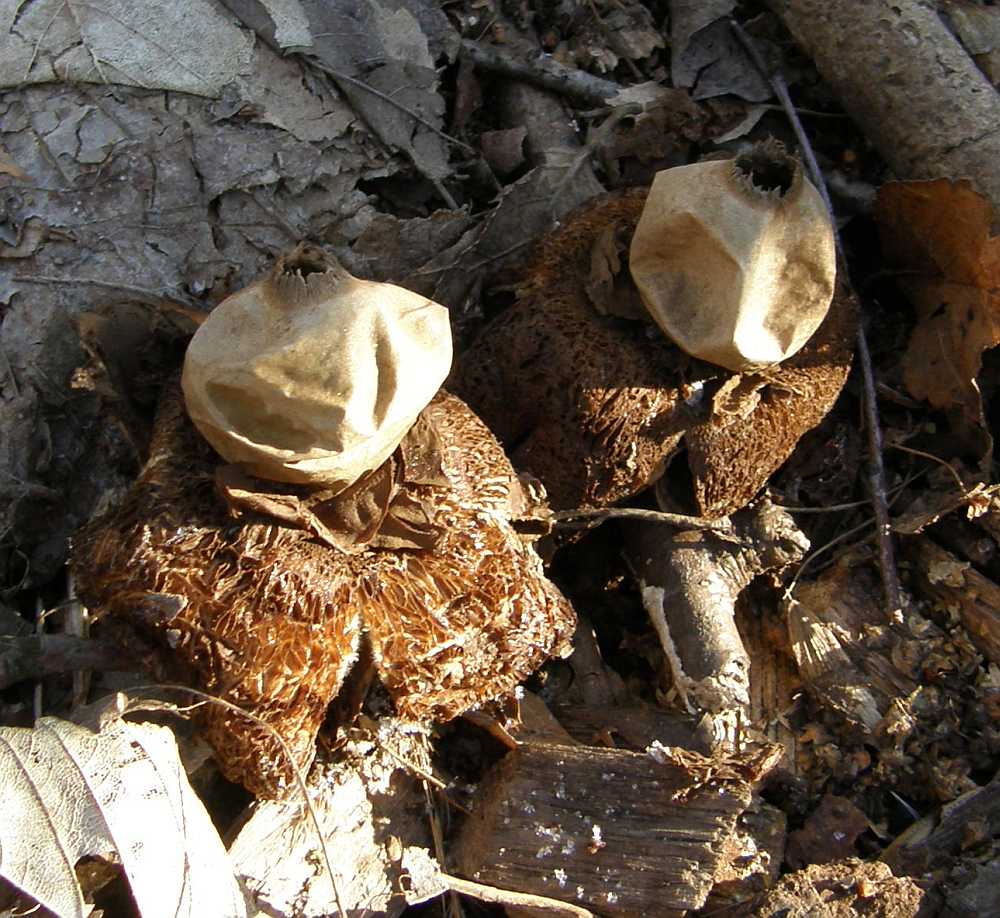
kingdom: Fungi
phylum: Basidiomycota
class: Agaricomycetes
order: Geastrales
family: Geastraceae
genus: Geastrum
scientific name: Geastrum michelianum
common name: kødet stjernebold
